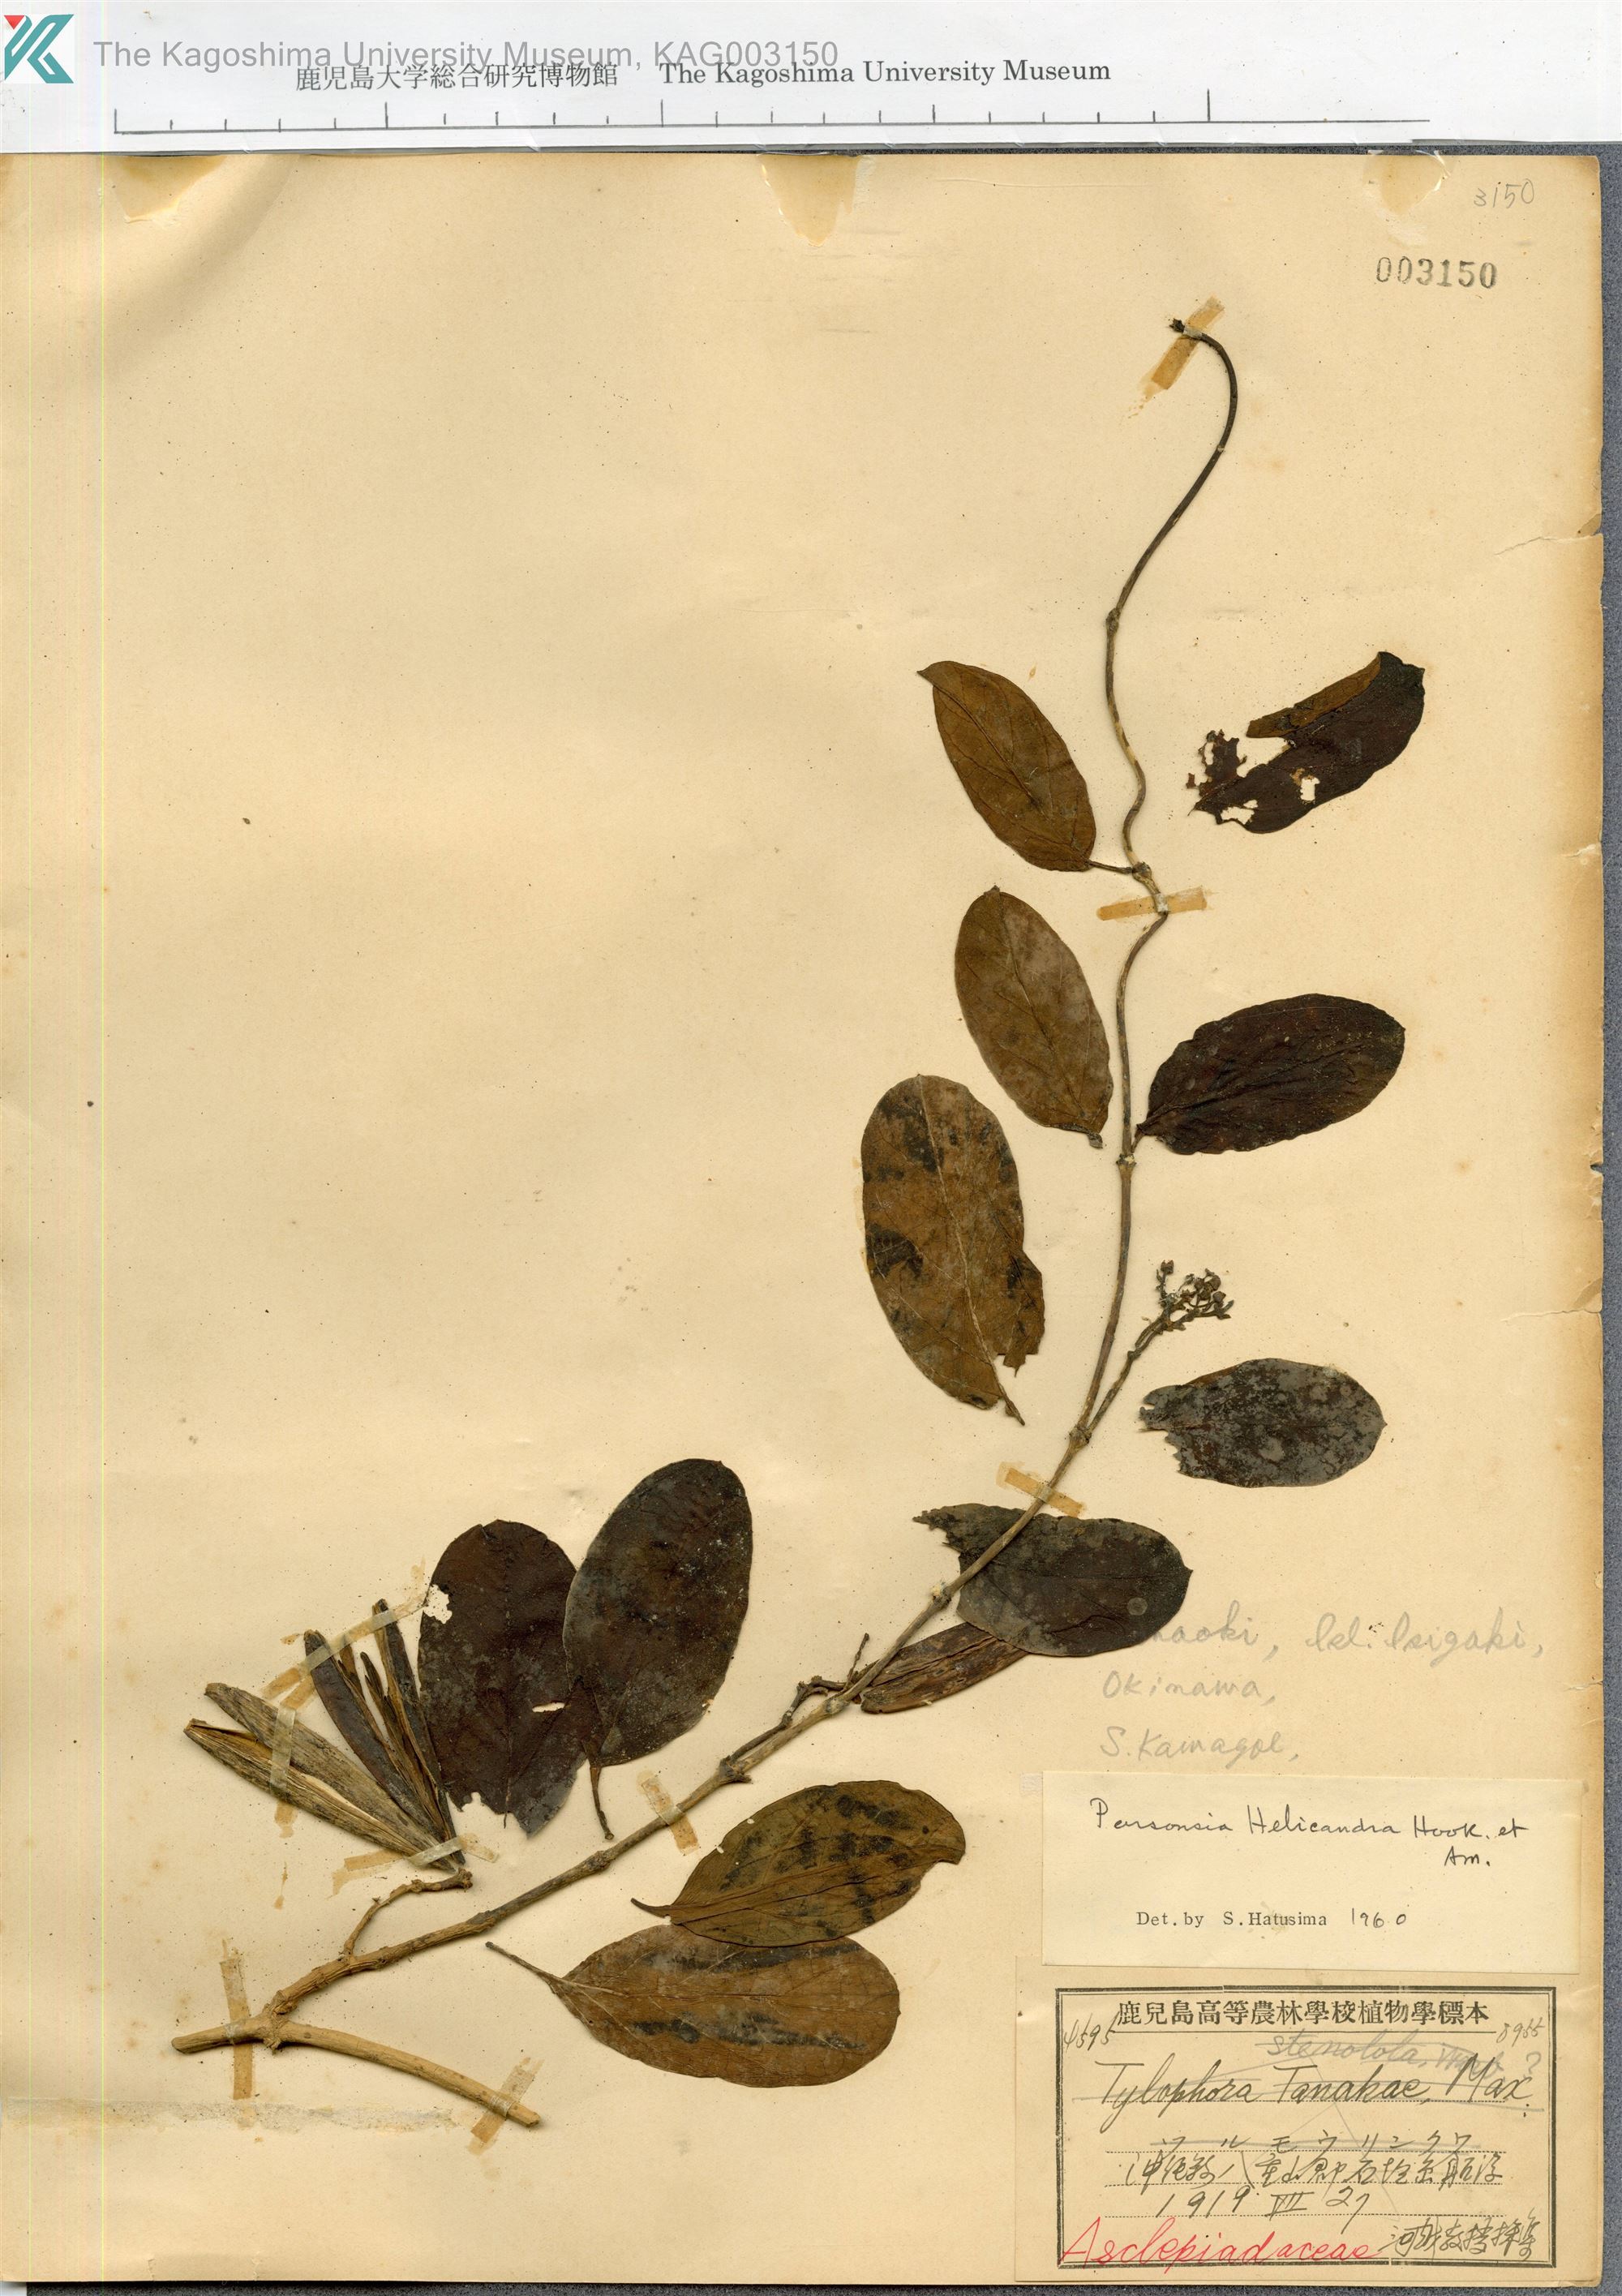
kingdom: Plantae
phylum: Tracheophyta
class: Magnoliopsida
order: Gentianales
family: Apocynaceae
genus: Parsonsia
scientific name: Parsonsia alboflavescens
